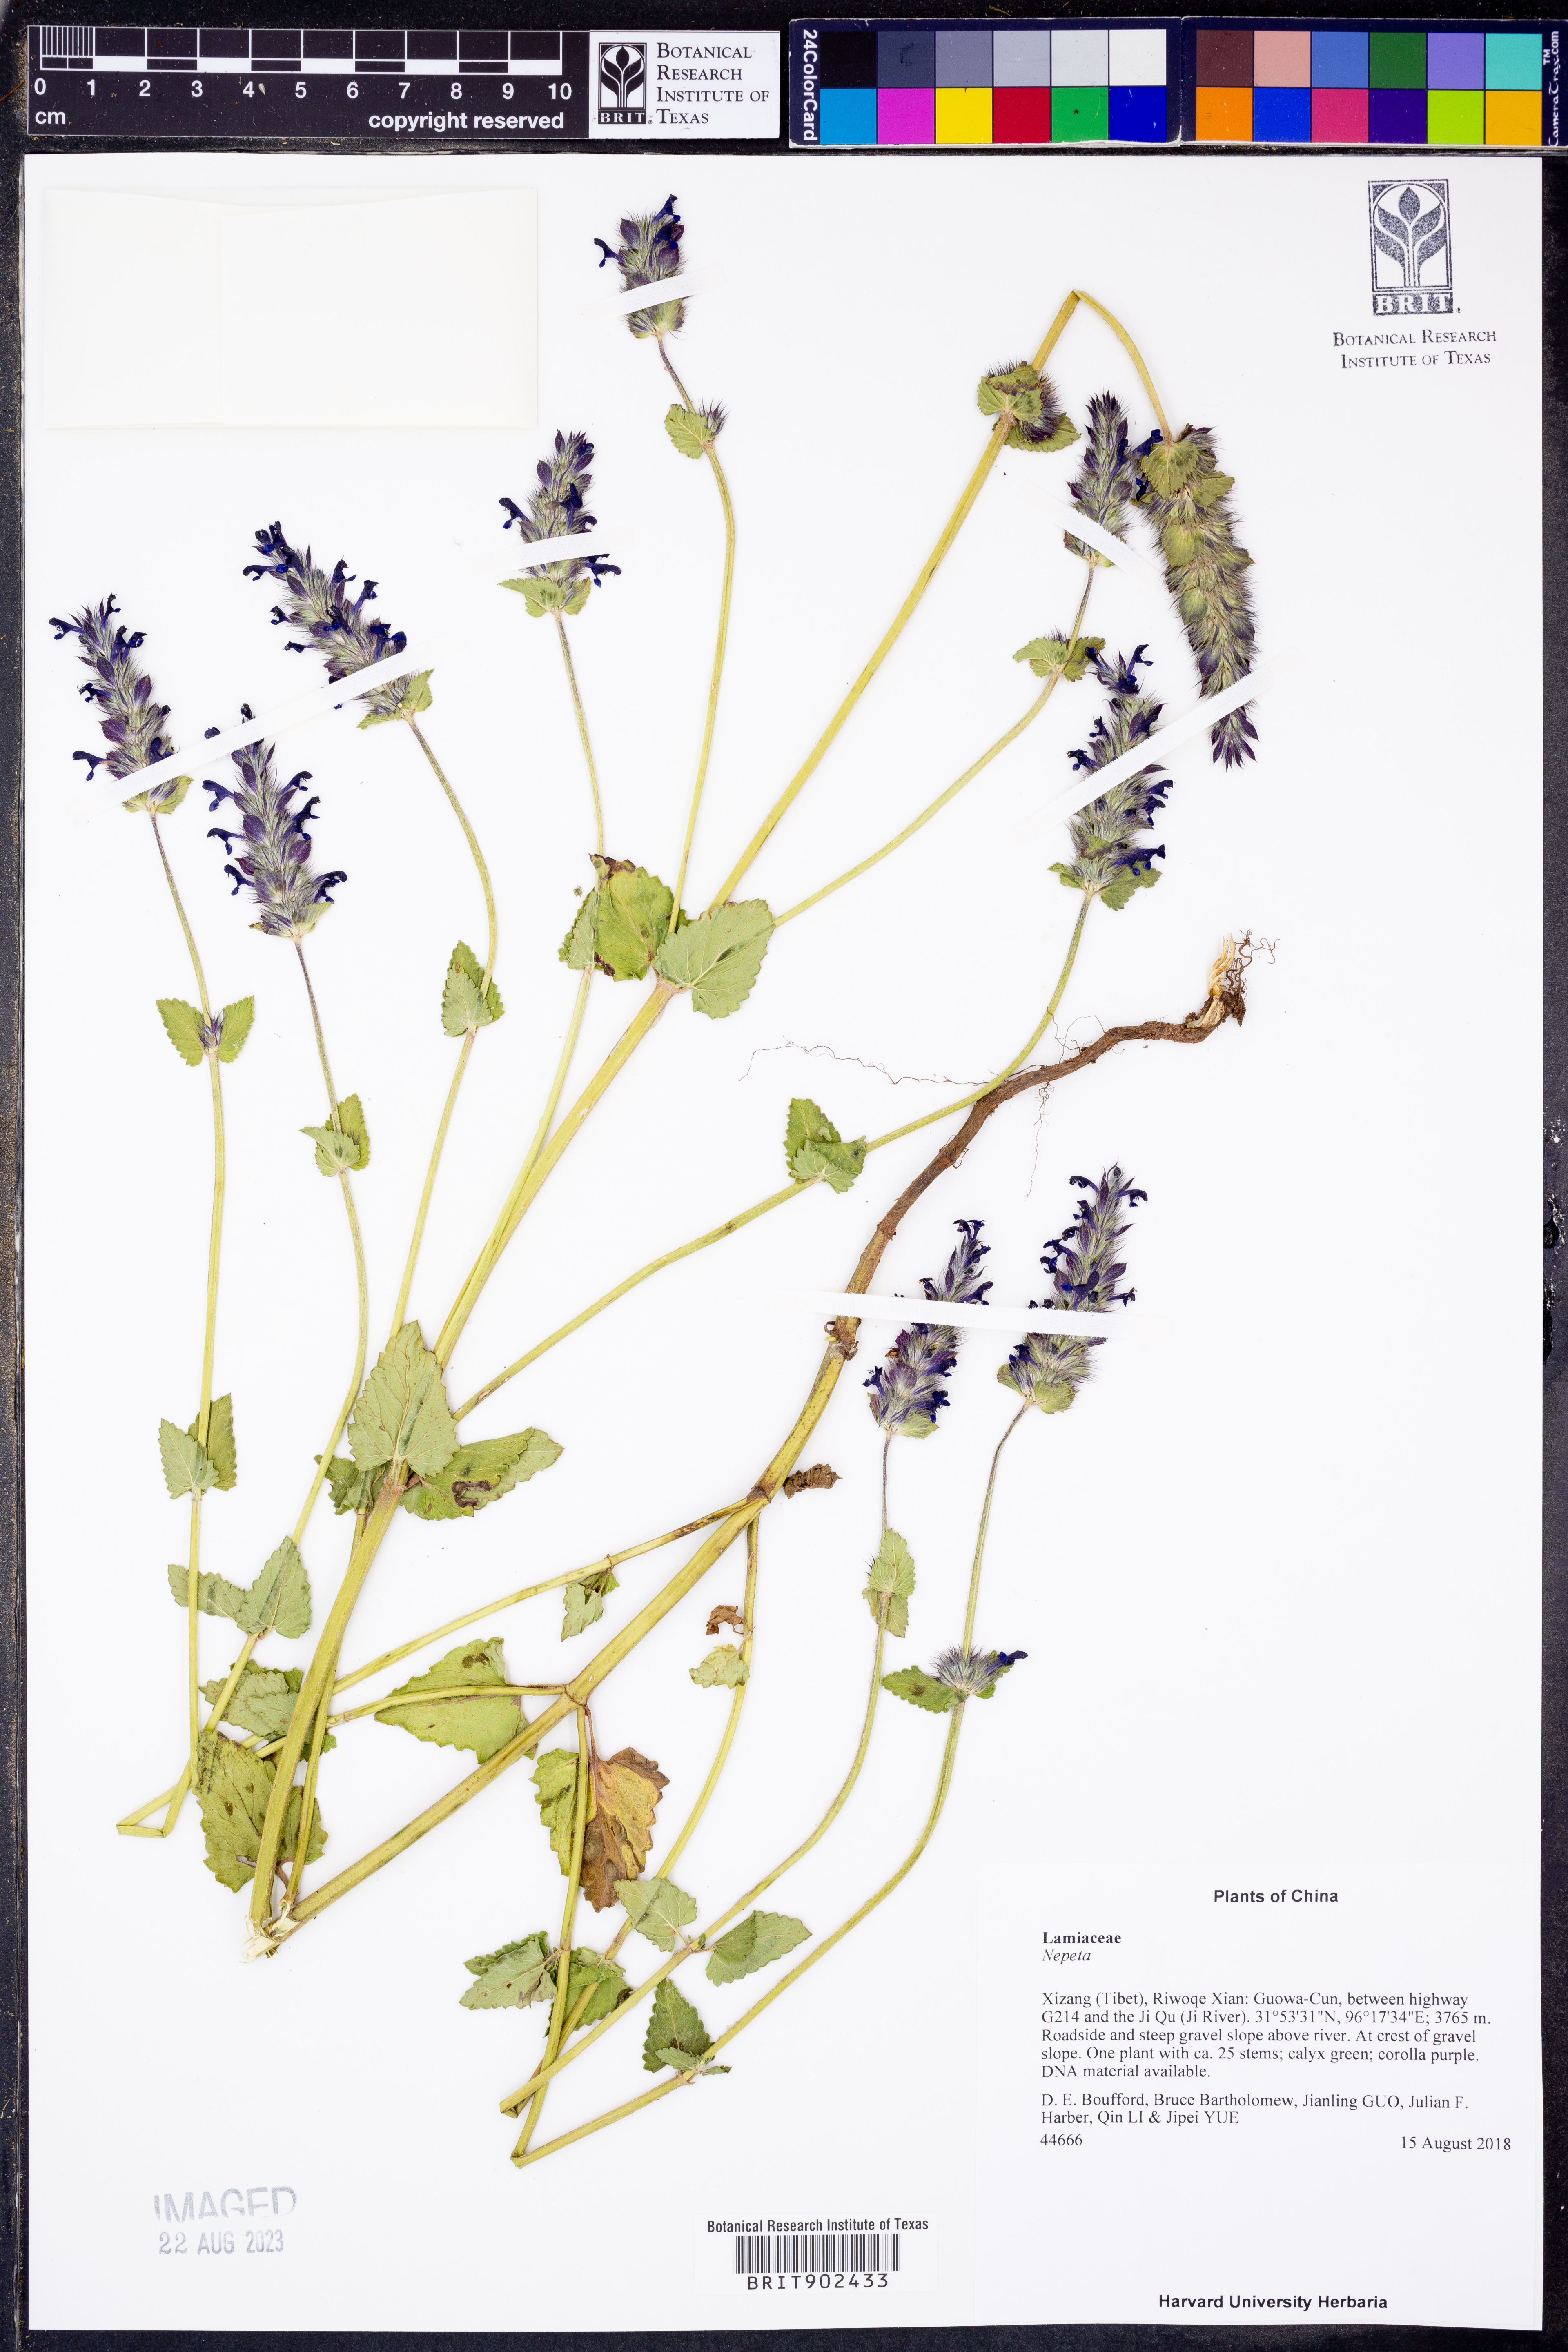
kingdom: Plantae
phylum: Tracheophyta
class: Magnoliopsida
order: Lamiales
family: Lamiaceae
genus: Nepeta
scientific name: Nepeta
